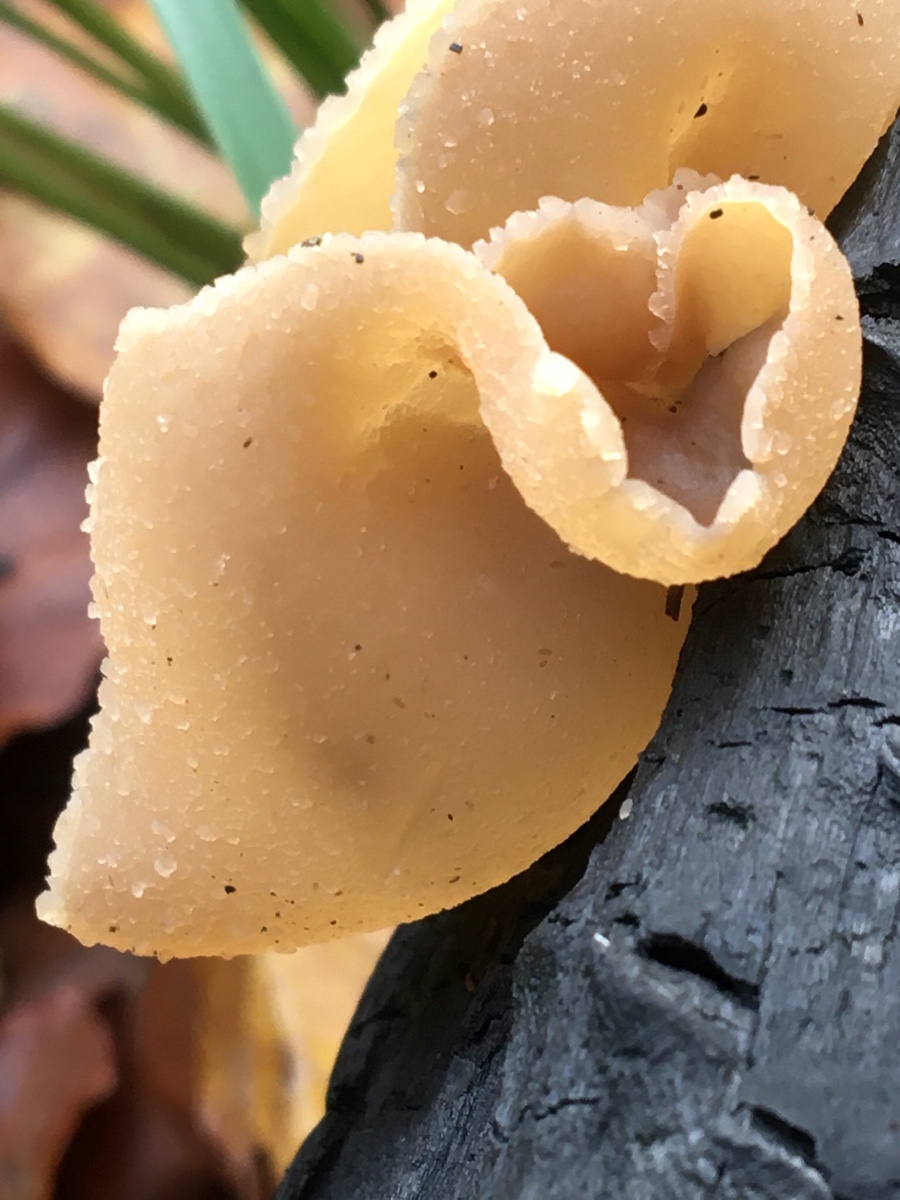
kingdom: Fungi
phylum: Ascomycota
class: Pezizomycetes
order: Pezizales
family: Pezizaceae
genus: Peziza
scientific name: Peziza
